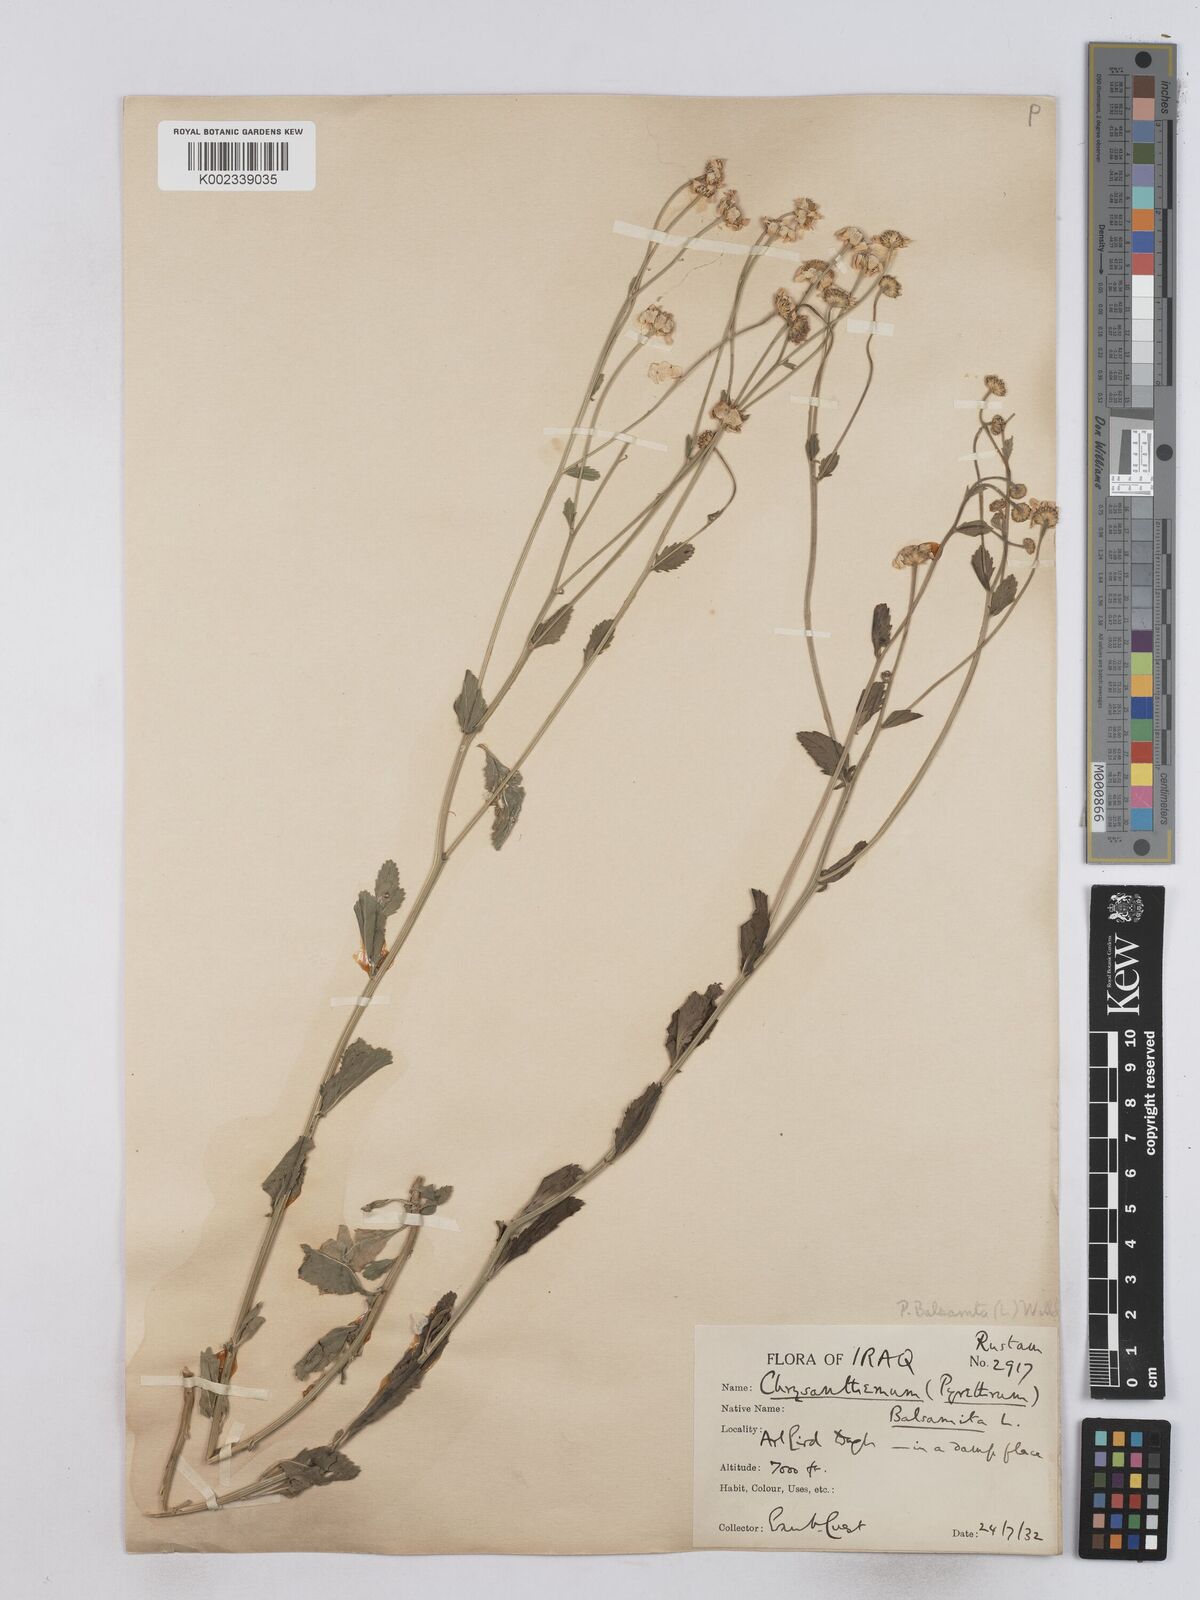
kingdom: Plantae
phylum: Tracheophyta
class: Magnoliopsida
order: Asterales
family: Asteraceae
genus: Tanacetum
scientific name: Tanacetum balsamitoides
